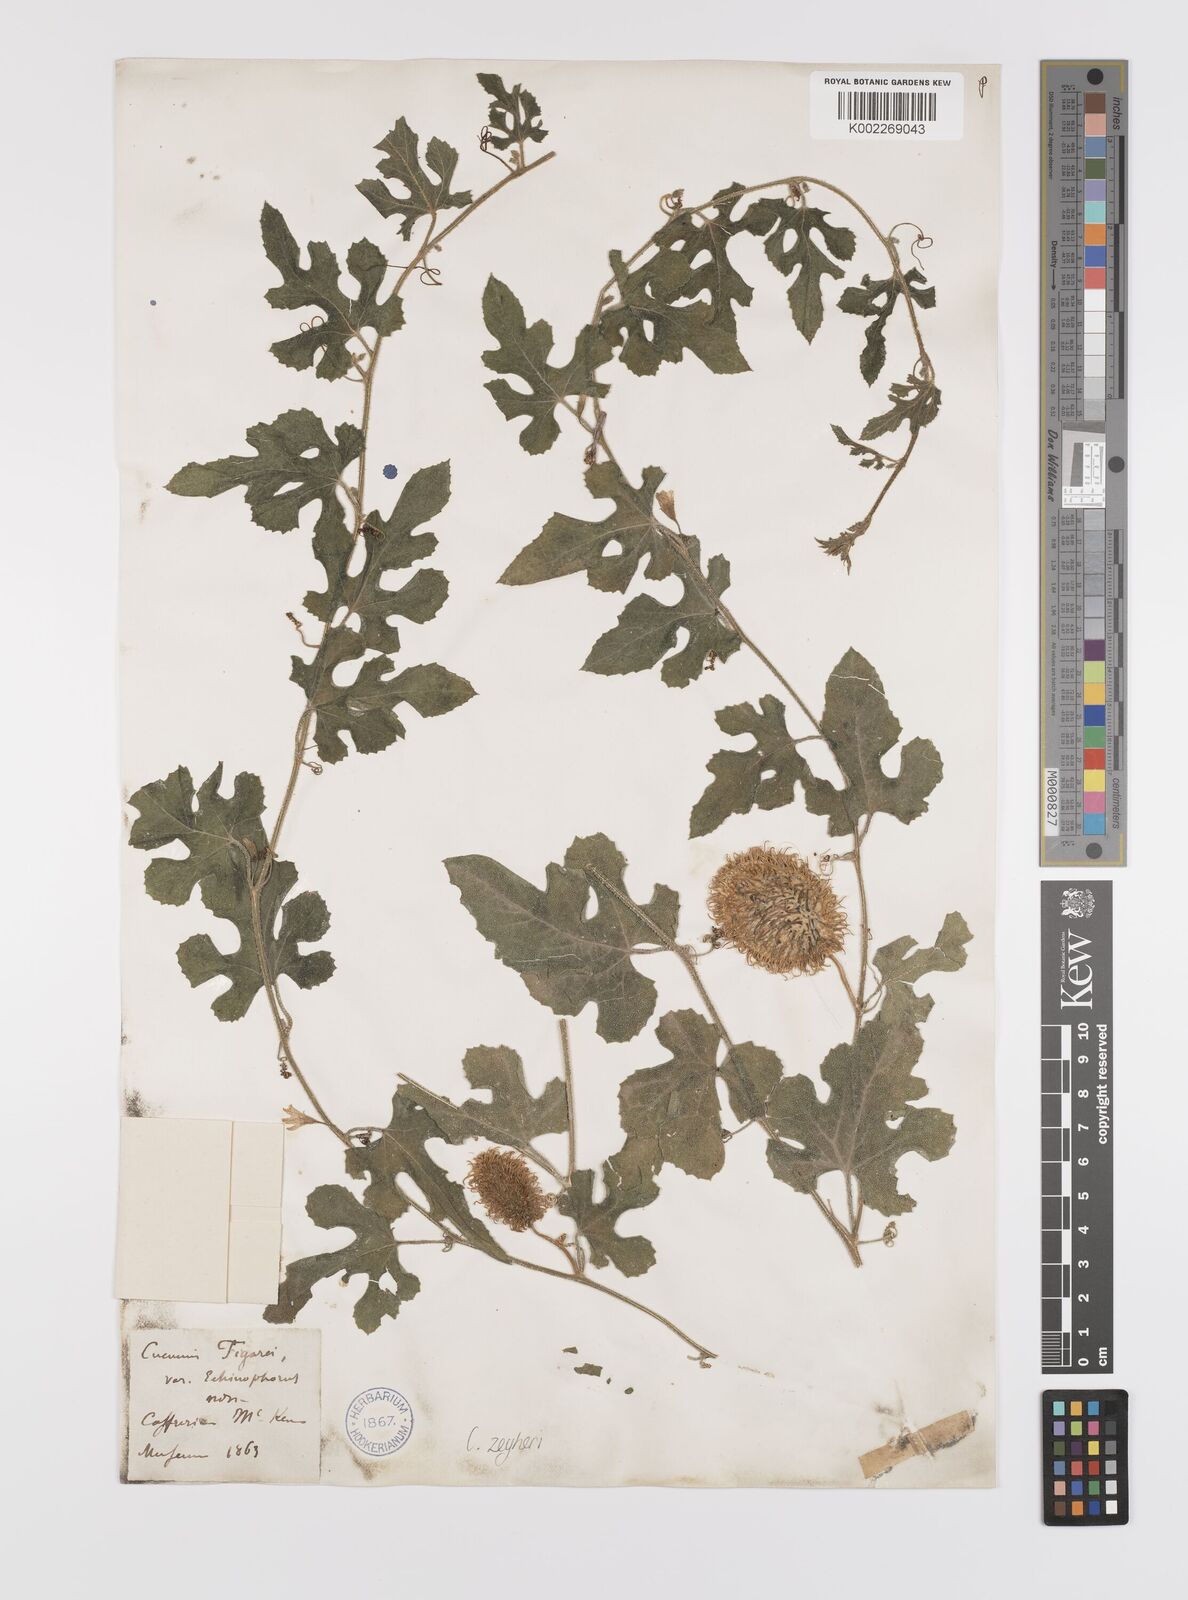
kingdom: Plantae
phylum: Tracheophyta
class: Magnoliopsida
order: Cucurbitales
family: Cucurbitaceae
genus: Cucumis
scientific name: Cucumis sativus
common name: Cucumber
